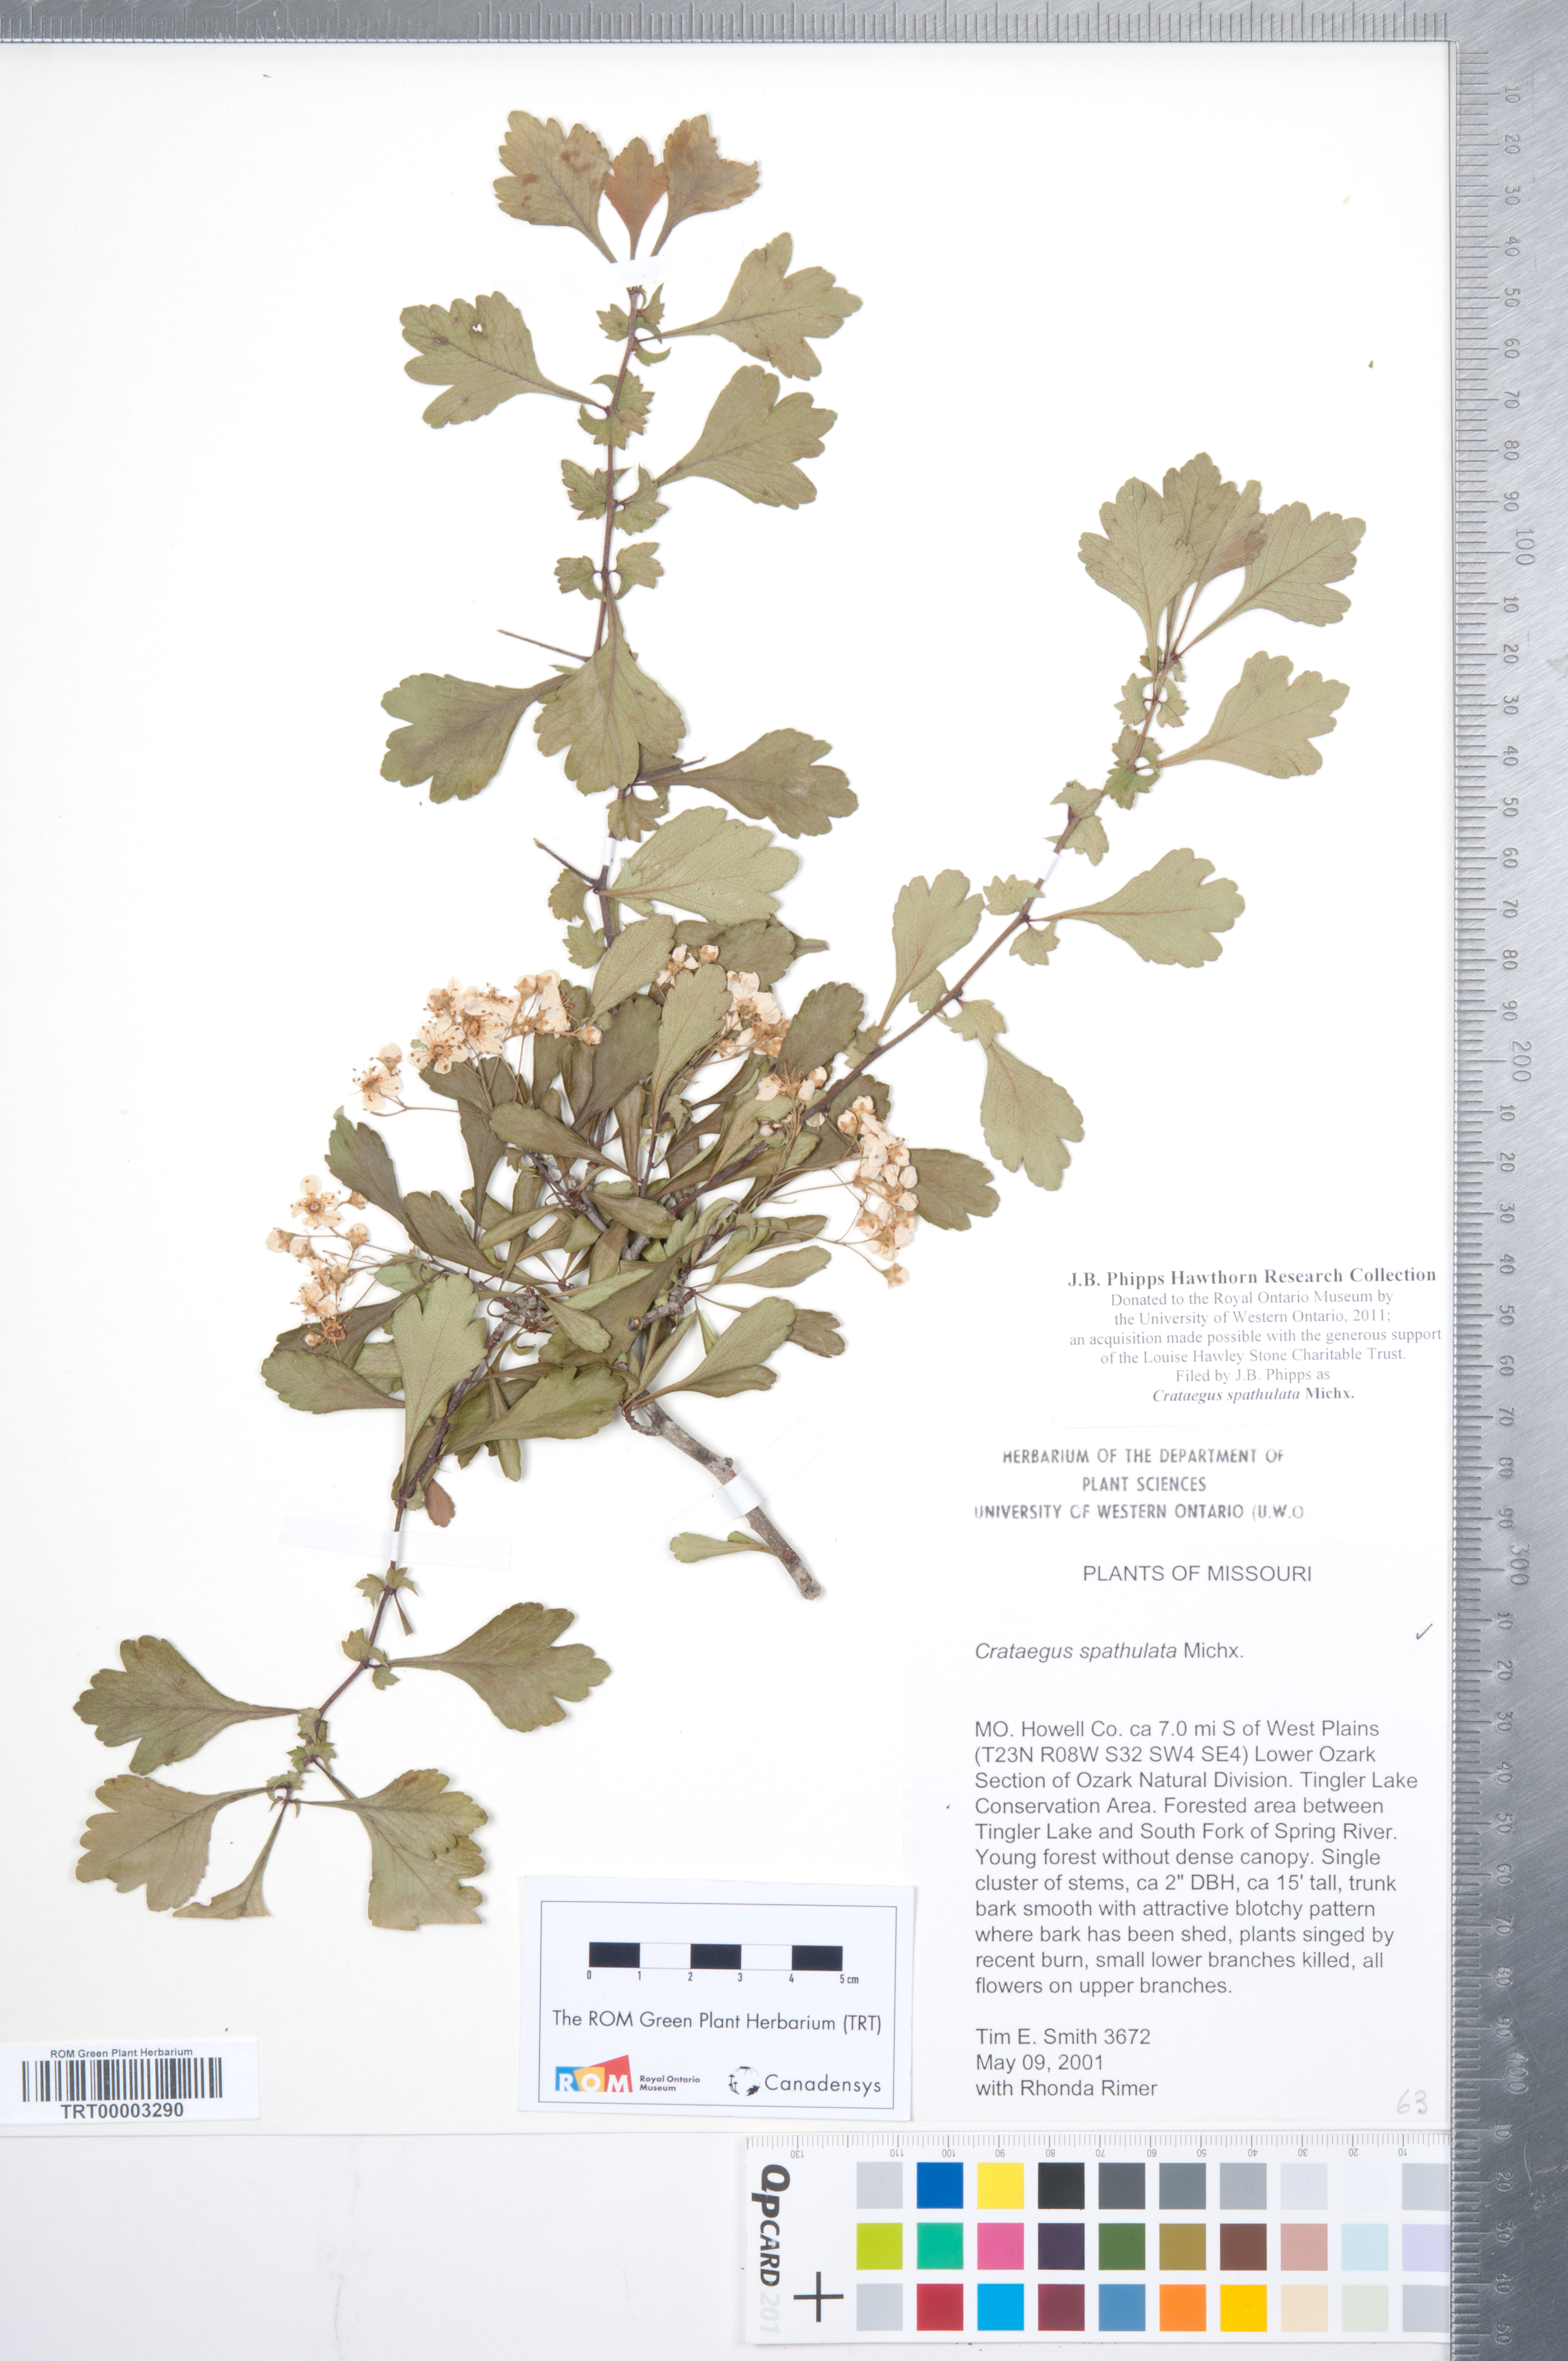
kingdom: Plantae
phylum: Tracheophyta
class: Magnoliopsida
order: Rosales
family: Rosaceae
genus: Crataegus
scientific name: Crataegus spathulata
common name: Littlehip hawthorn
